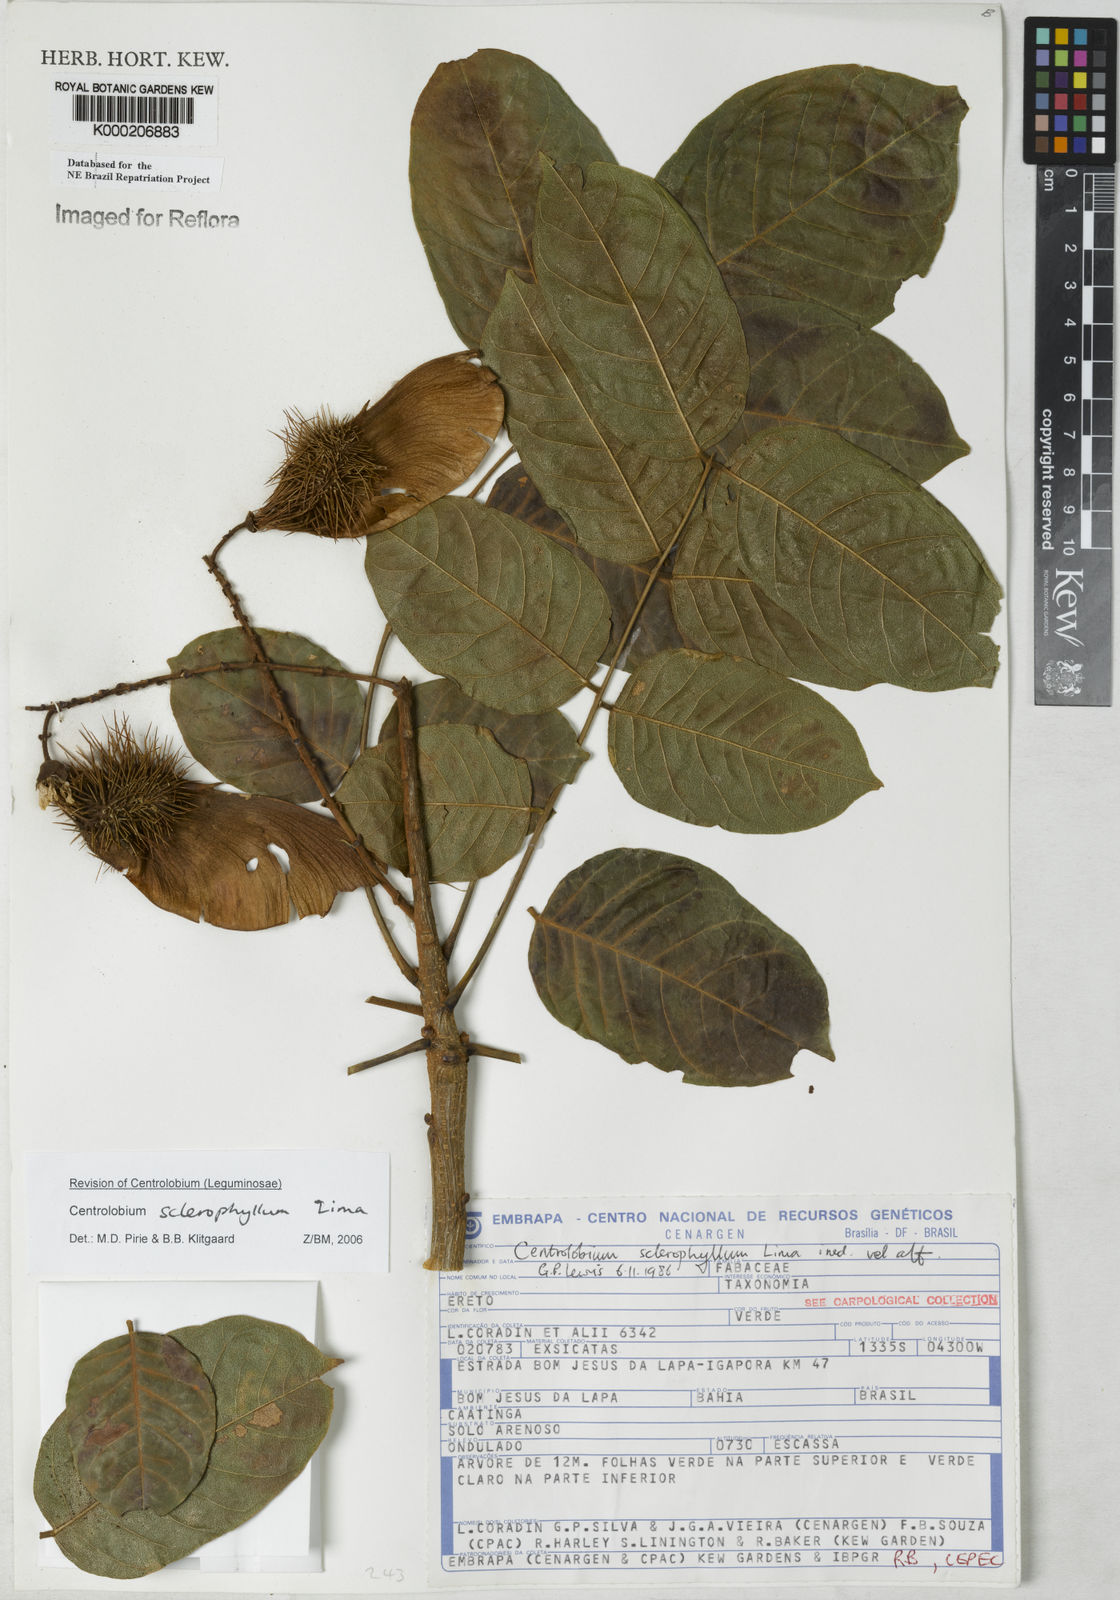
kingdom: Plantae
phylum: Tracheophyta
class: Magnoliopsida
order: Fabales
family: Fabaceae
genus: Centrolobium
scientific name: Centrolobium sclerophyllum
